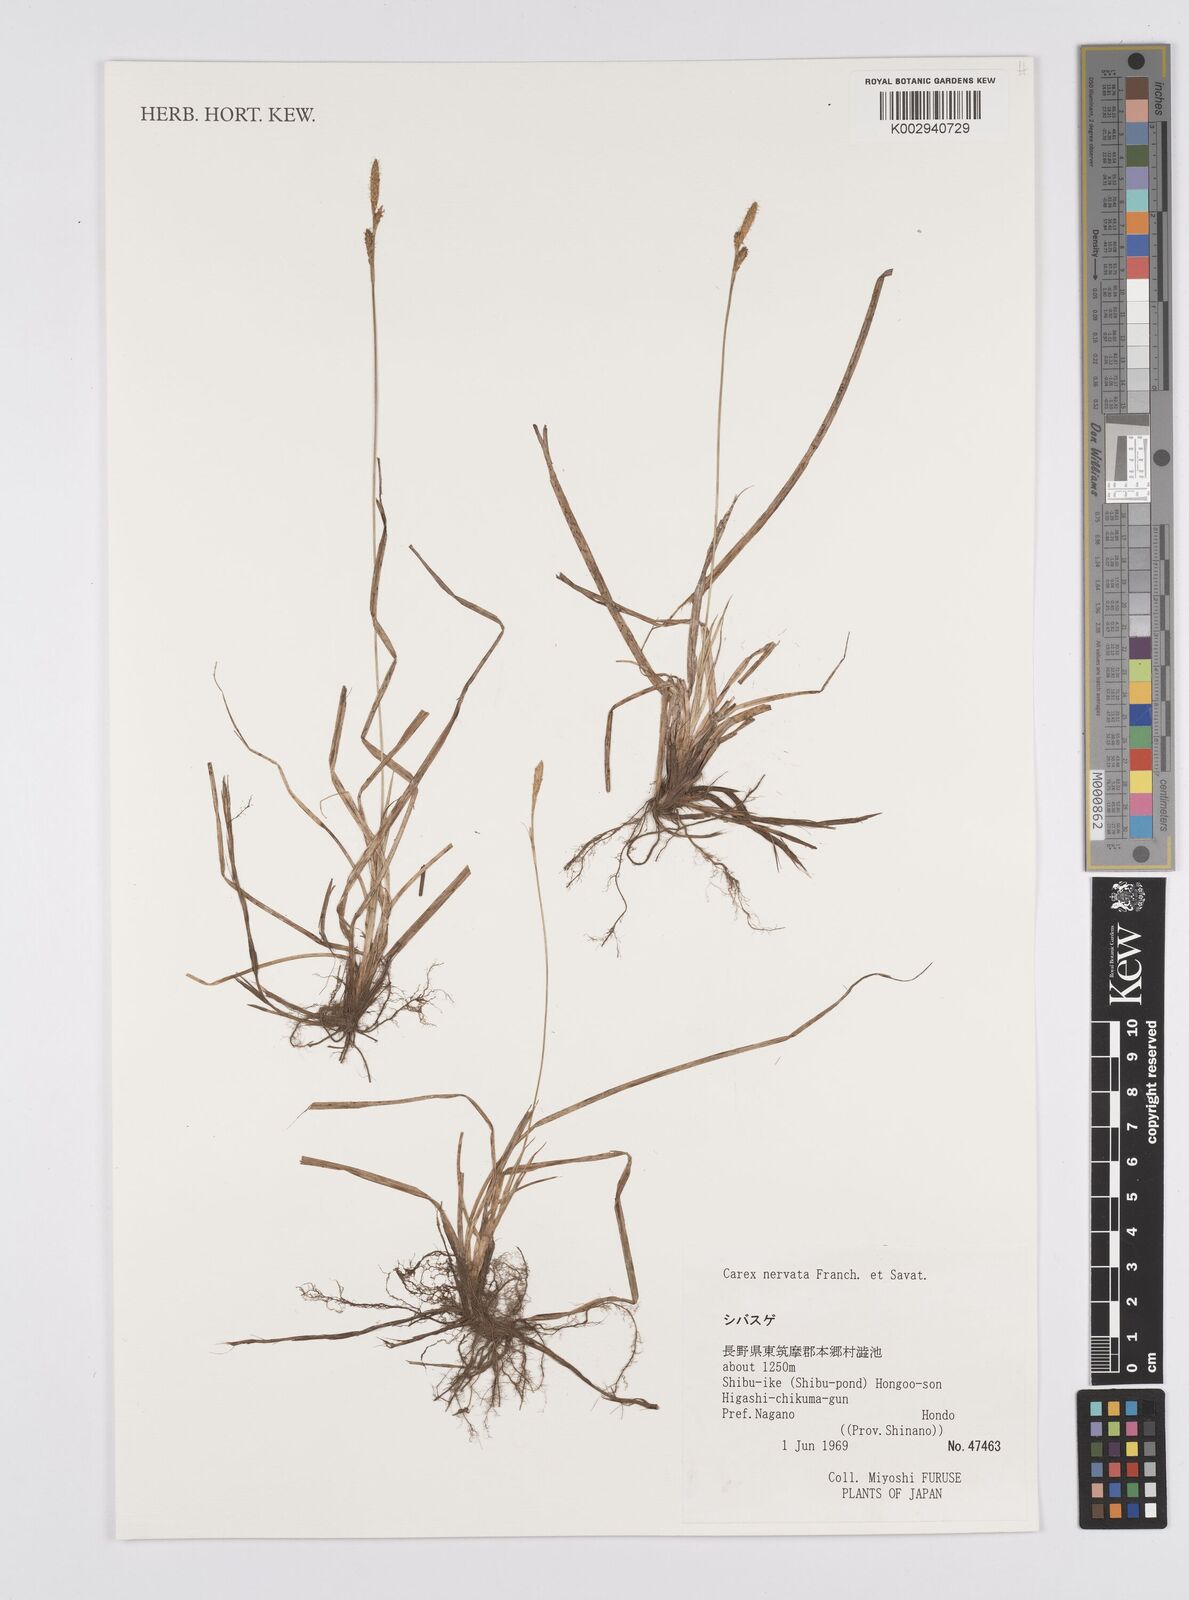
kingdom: Plantae
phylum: Tracheophyta
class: Liliopsida
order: Poales
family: Cyperaceae
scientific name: Cyperaceae
